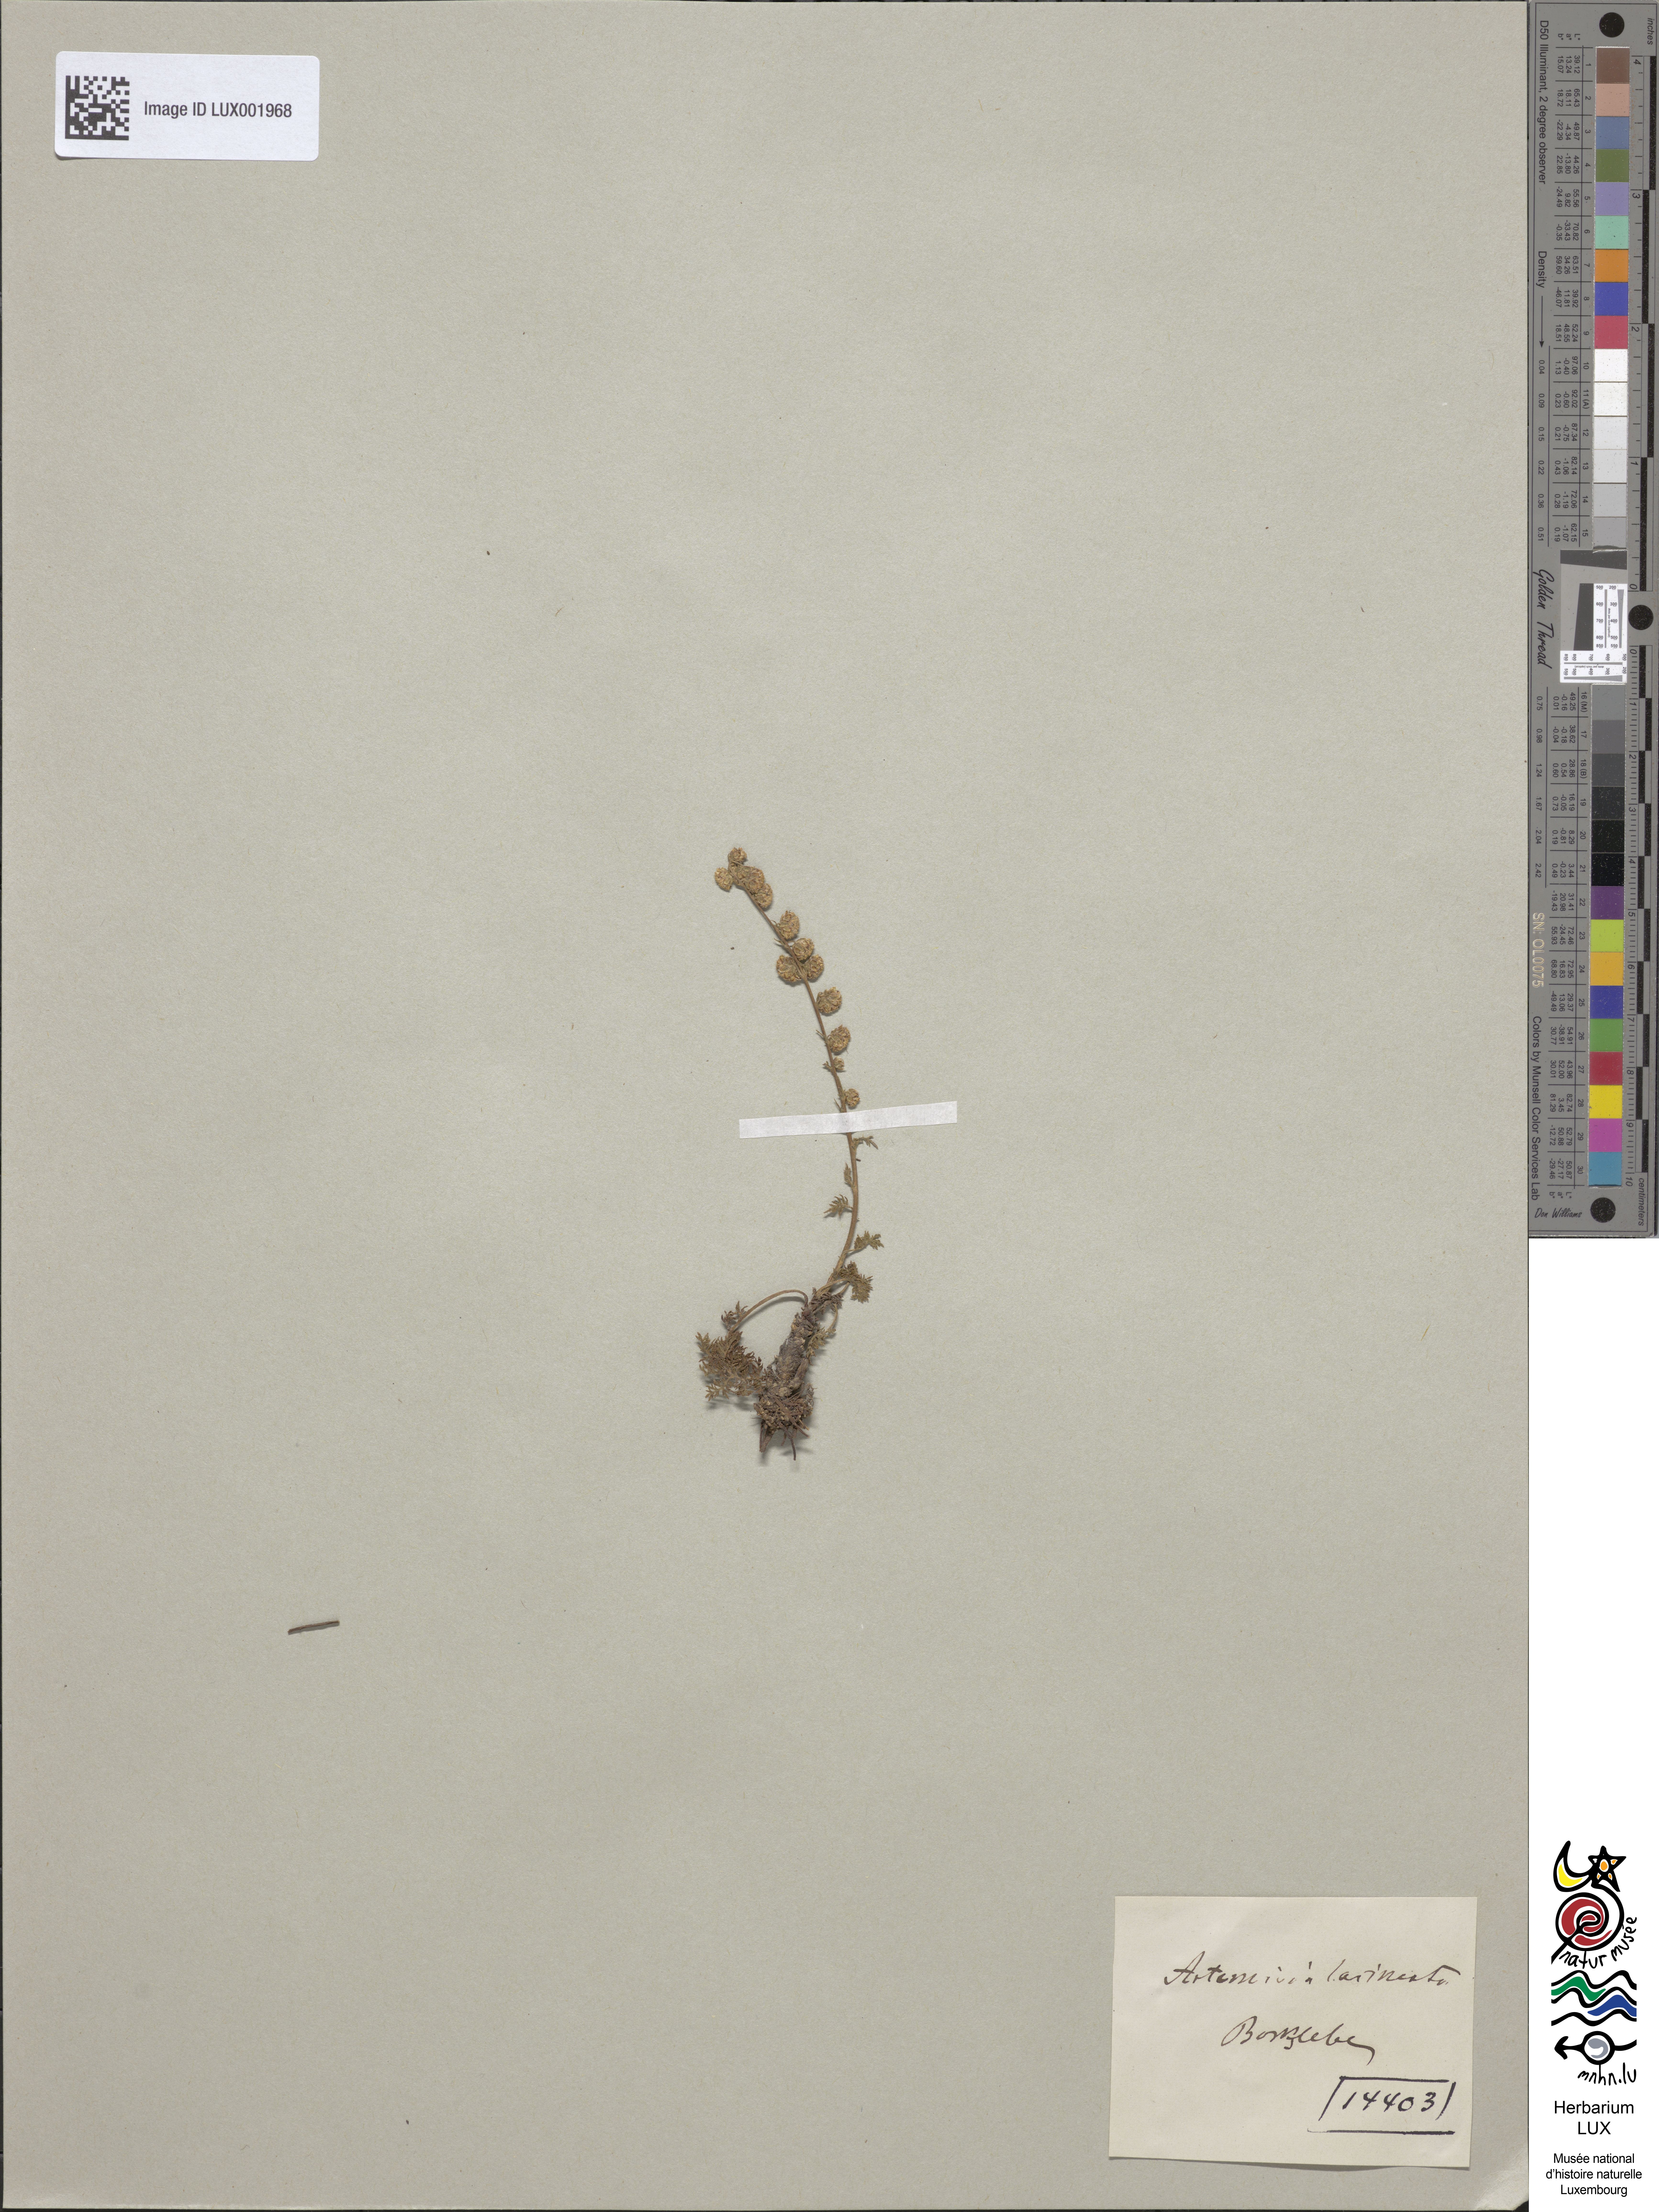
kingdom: Plantae
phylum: Tracheophyta
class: Magnoliopsida
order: Asterales
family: Asteraceae
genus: Artemisia
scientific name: Artemisia laciniata
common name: Siberian wormwood
